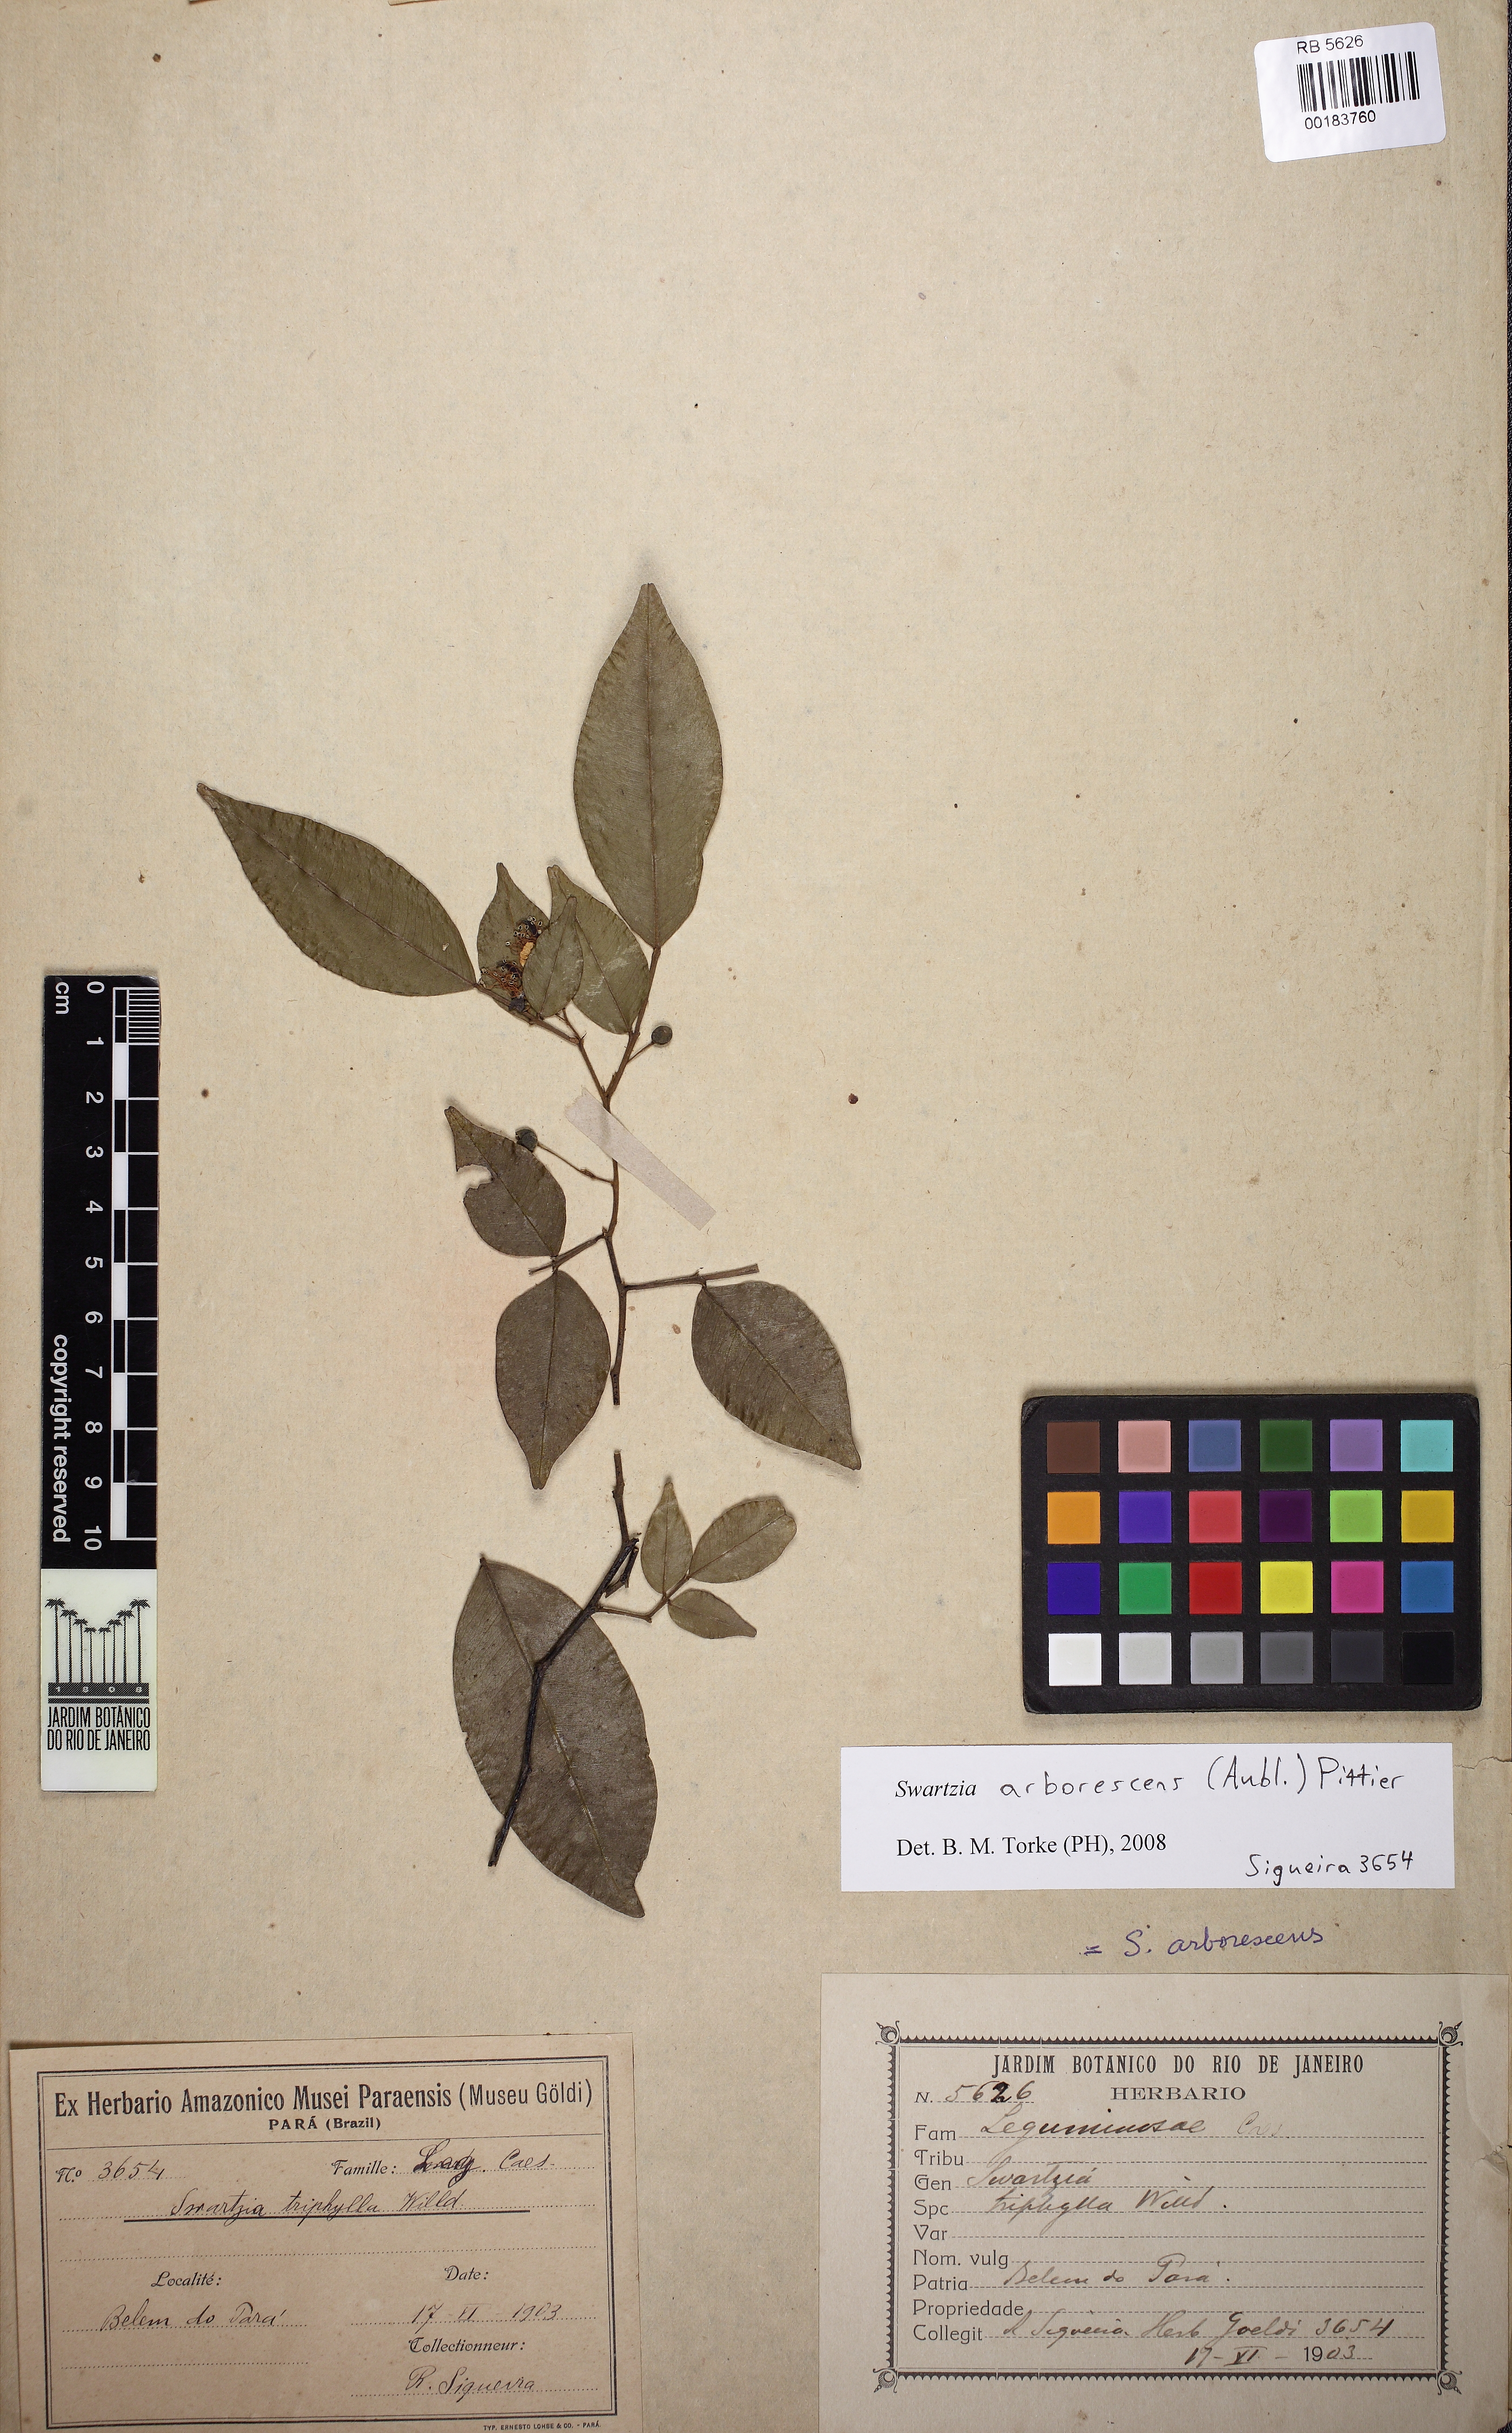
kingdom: Plantae
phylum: Tracheophyta
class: Magnoliopsida
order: Fabales
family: Fabaceae
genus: Swartzia
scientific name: Swartzia arborescens
